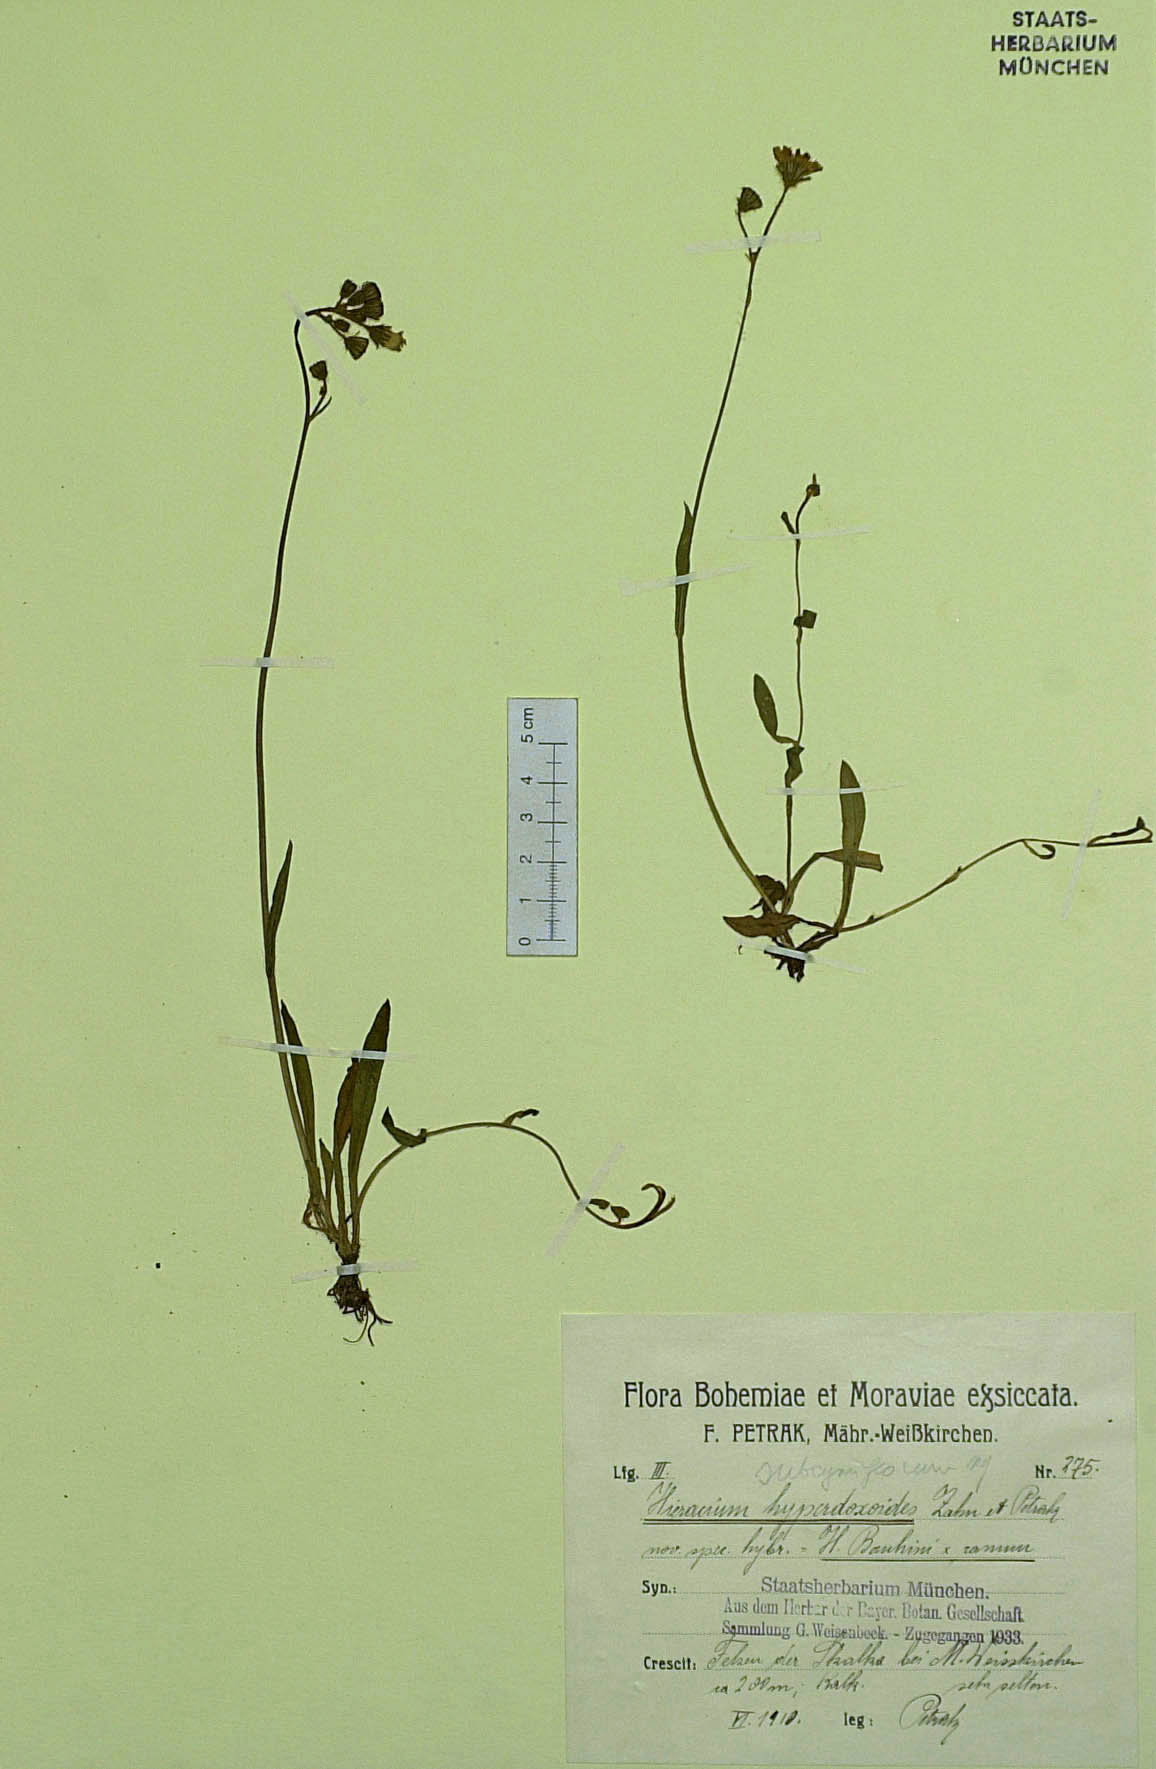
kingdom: Plantae
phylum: Tracheophyta
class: Magnoliopsida
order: Asterales
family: Asteraceae
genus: Pilosella
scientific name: Pilosella fallacina
